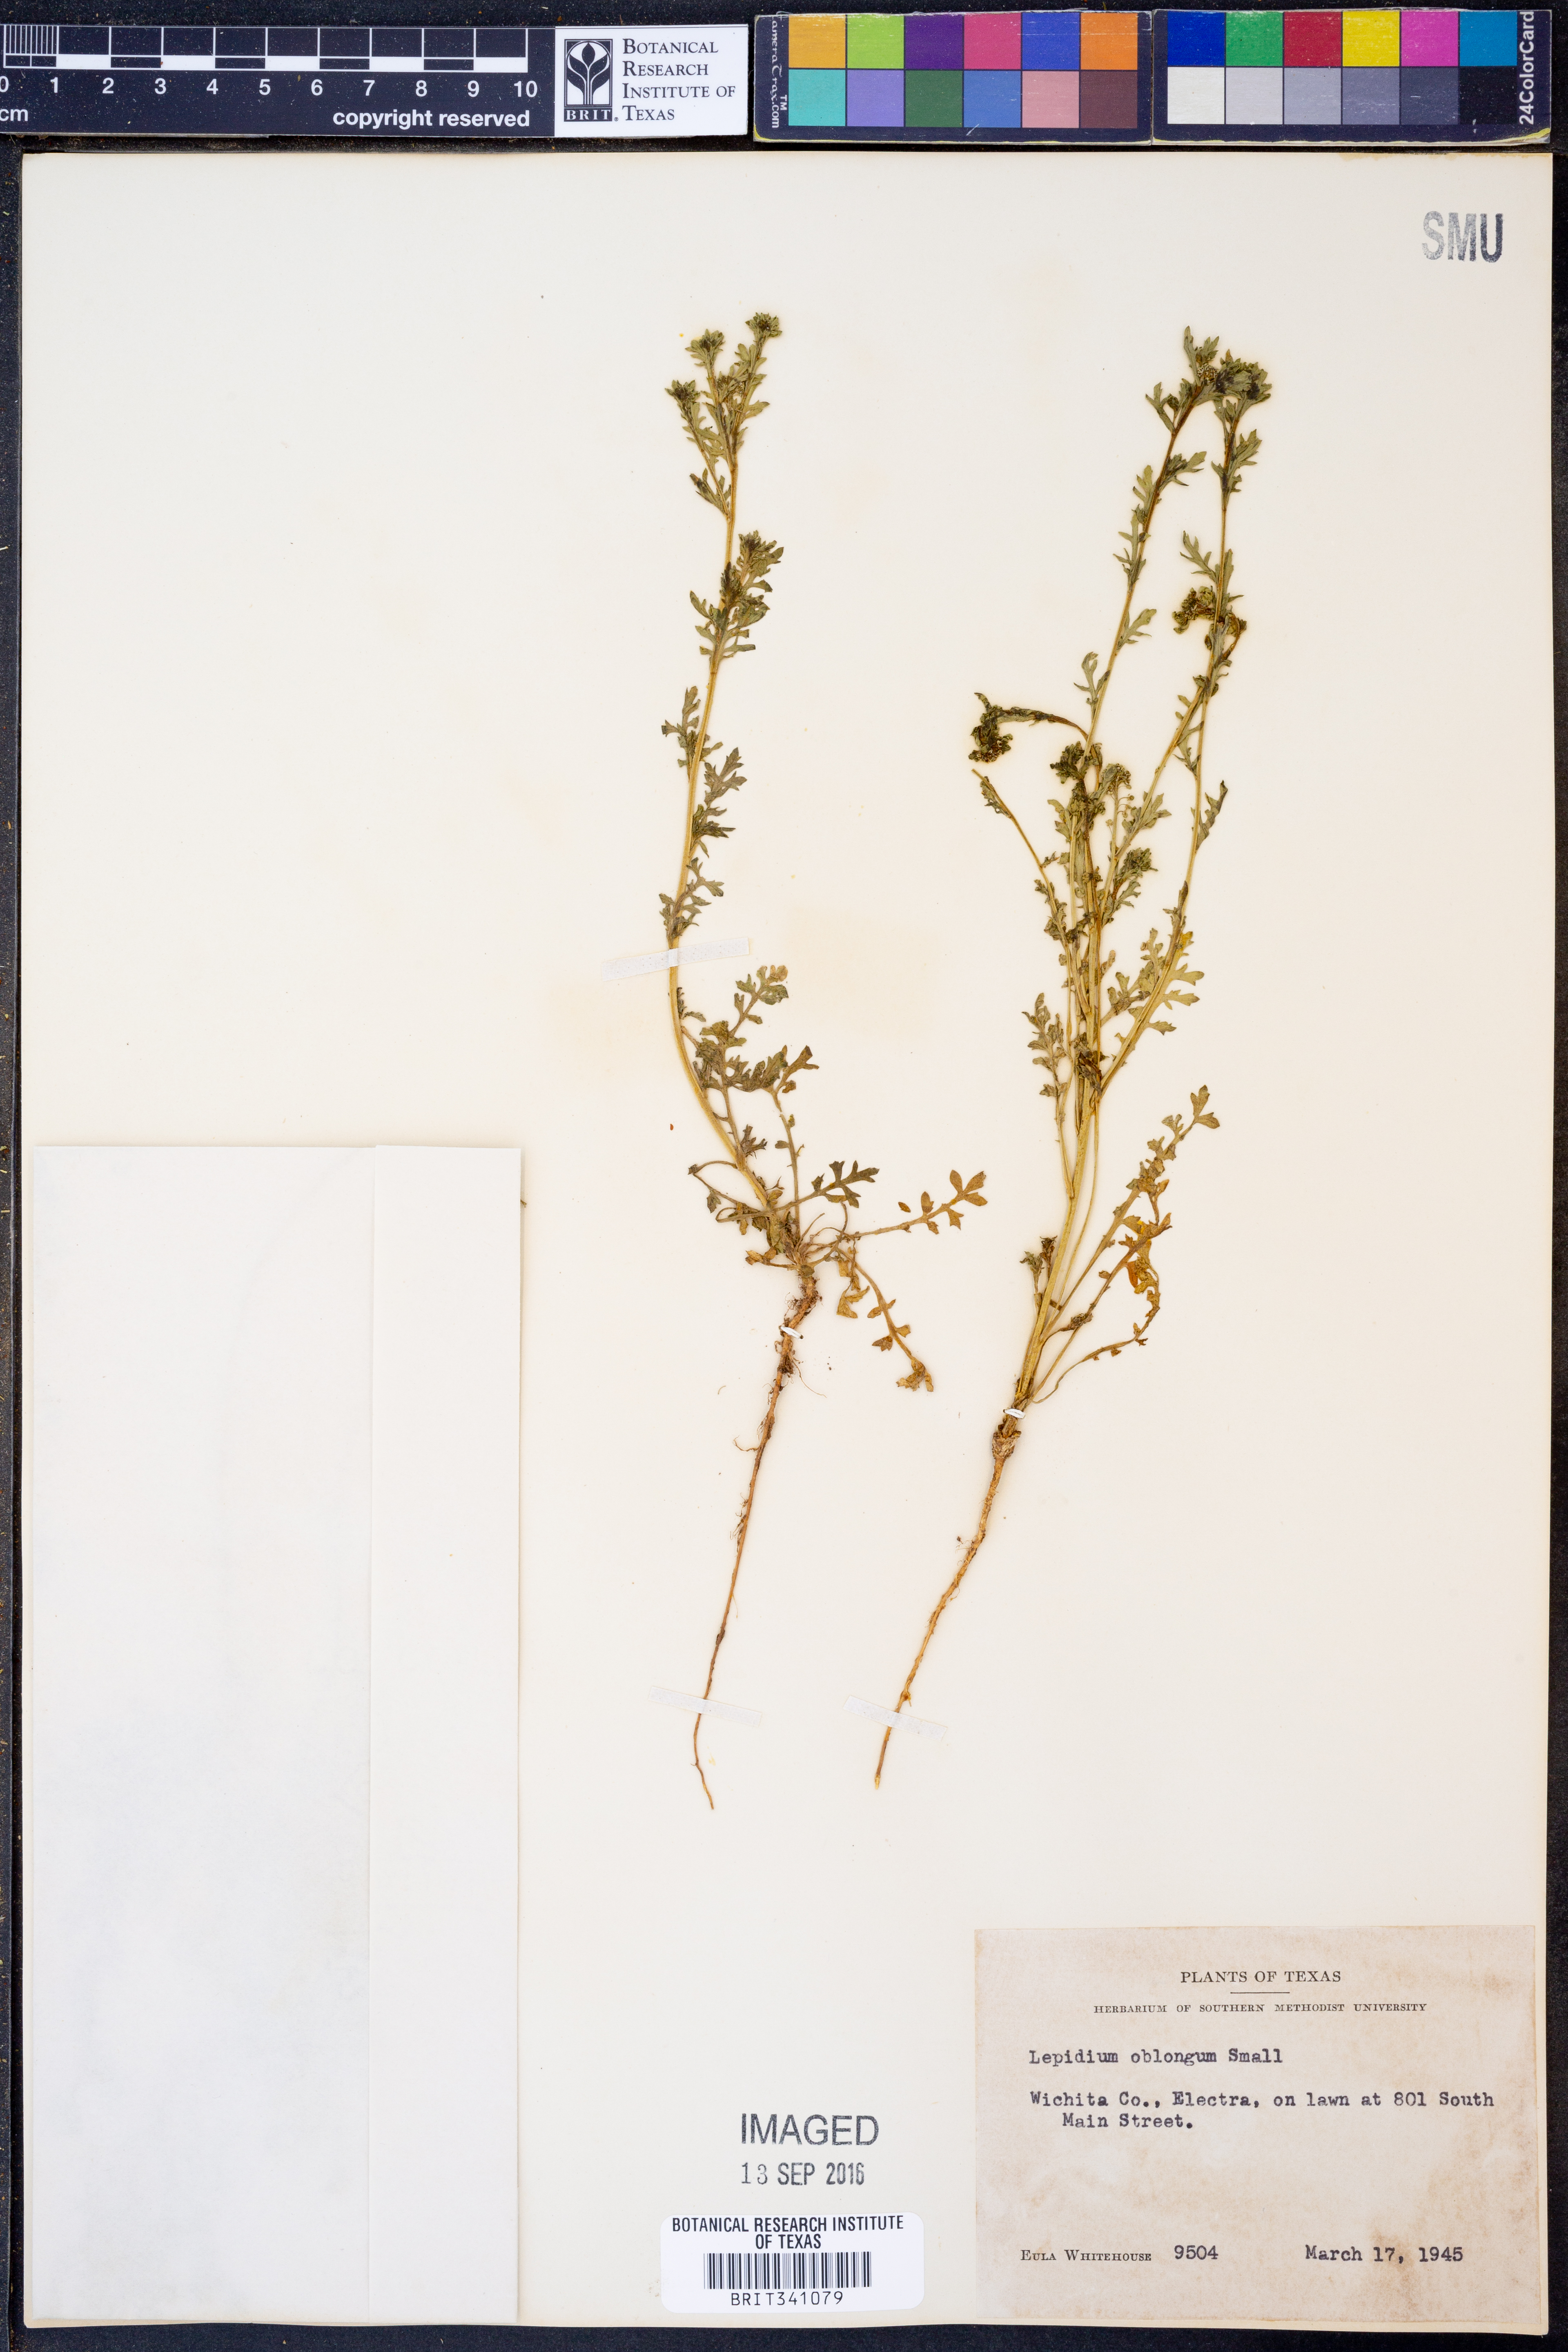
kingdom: Plantae
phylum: Tracheophyta
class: Magnoliopsida
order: Brassicales
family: Brassicaceae
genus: Lepidium
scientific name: Lepidium oblongum
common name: Veiny pepperweed
